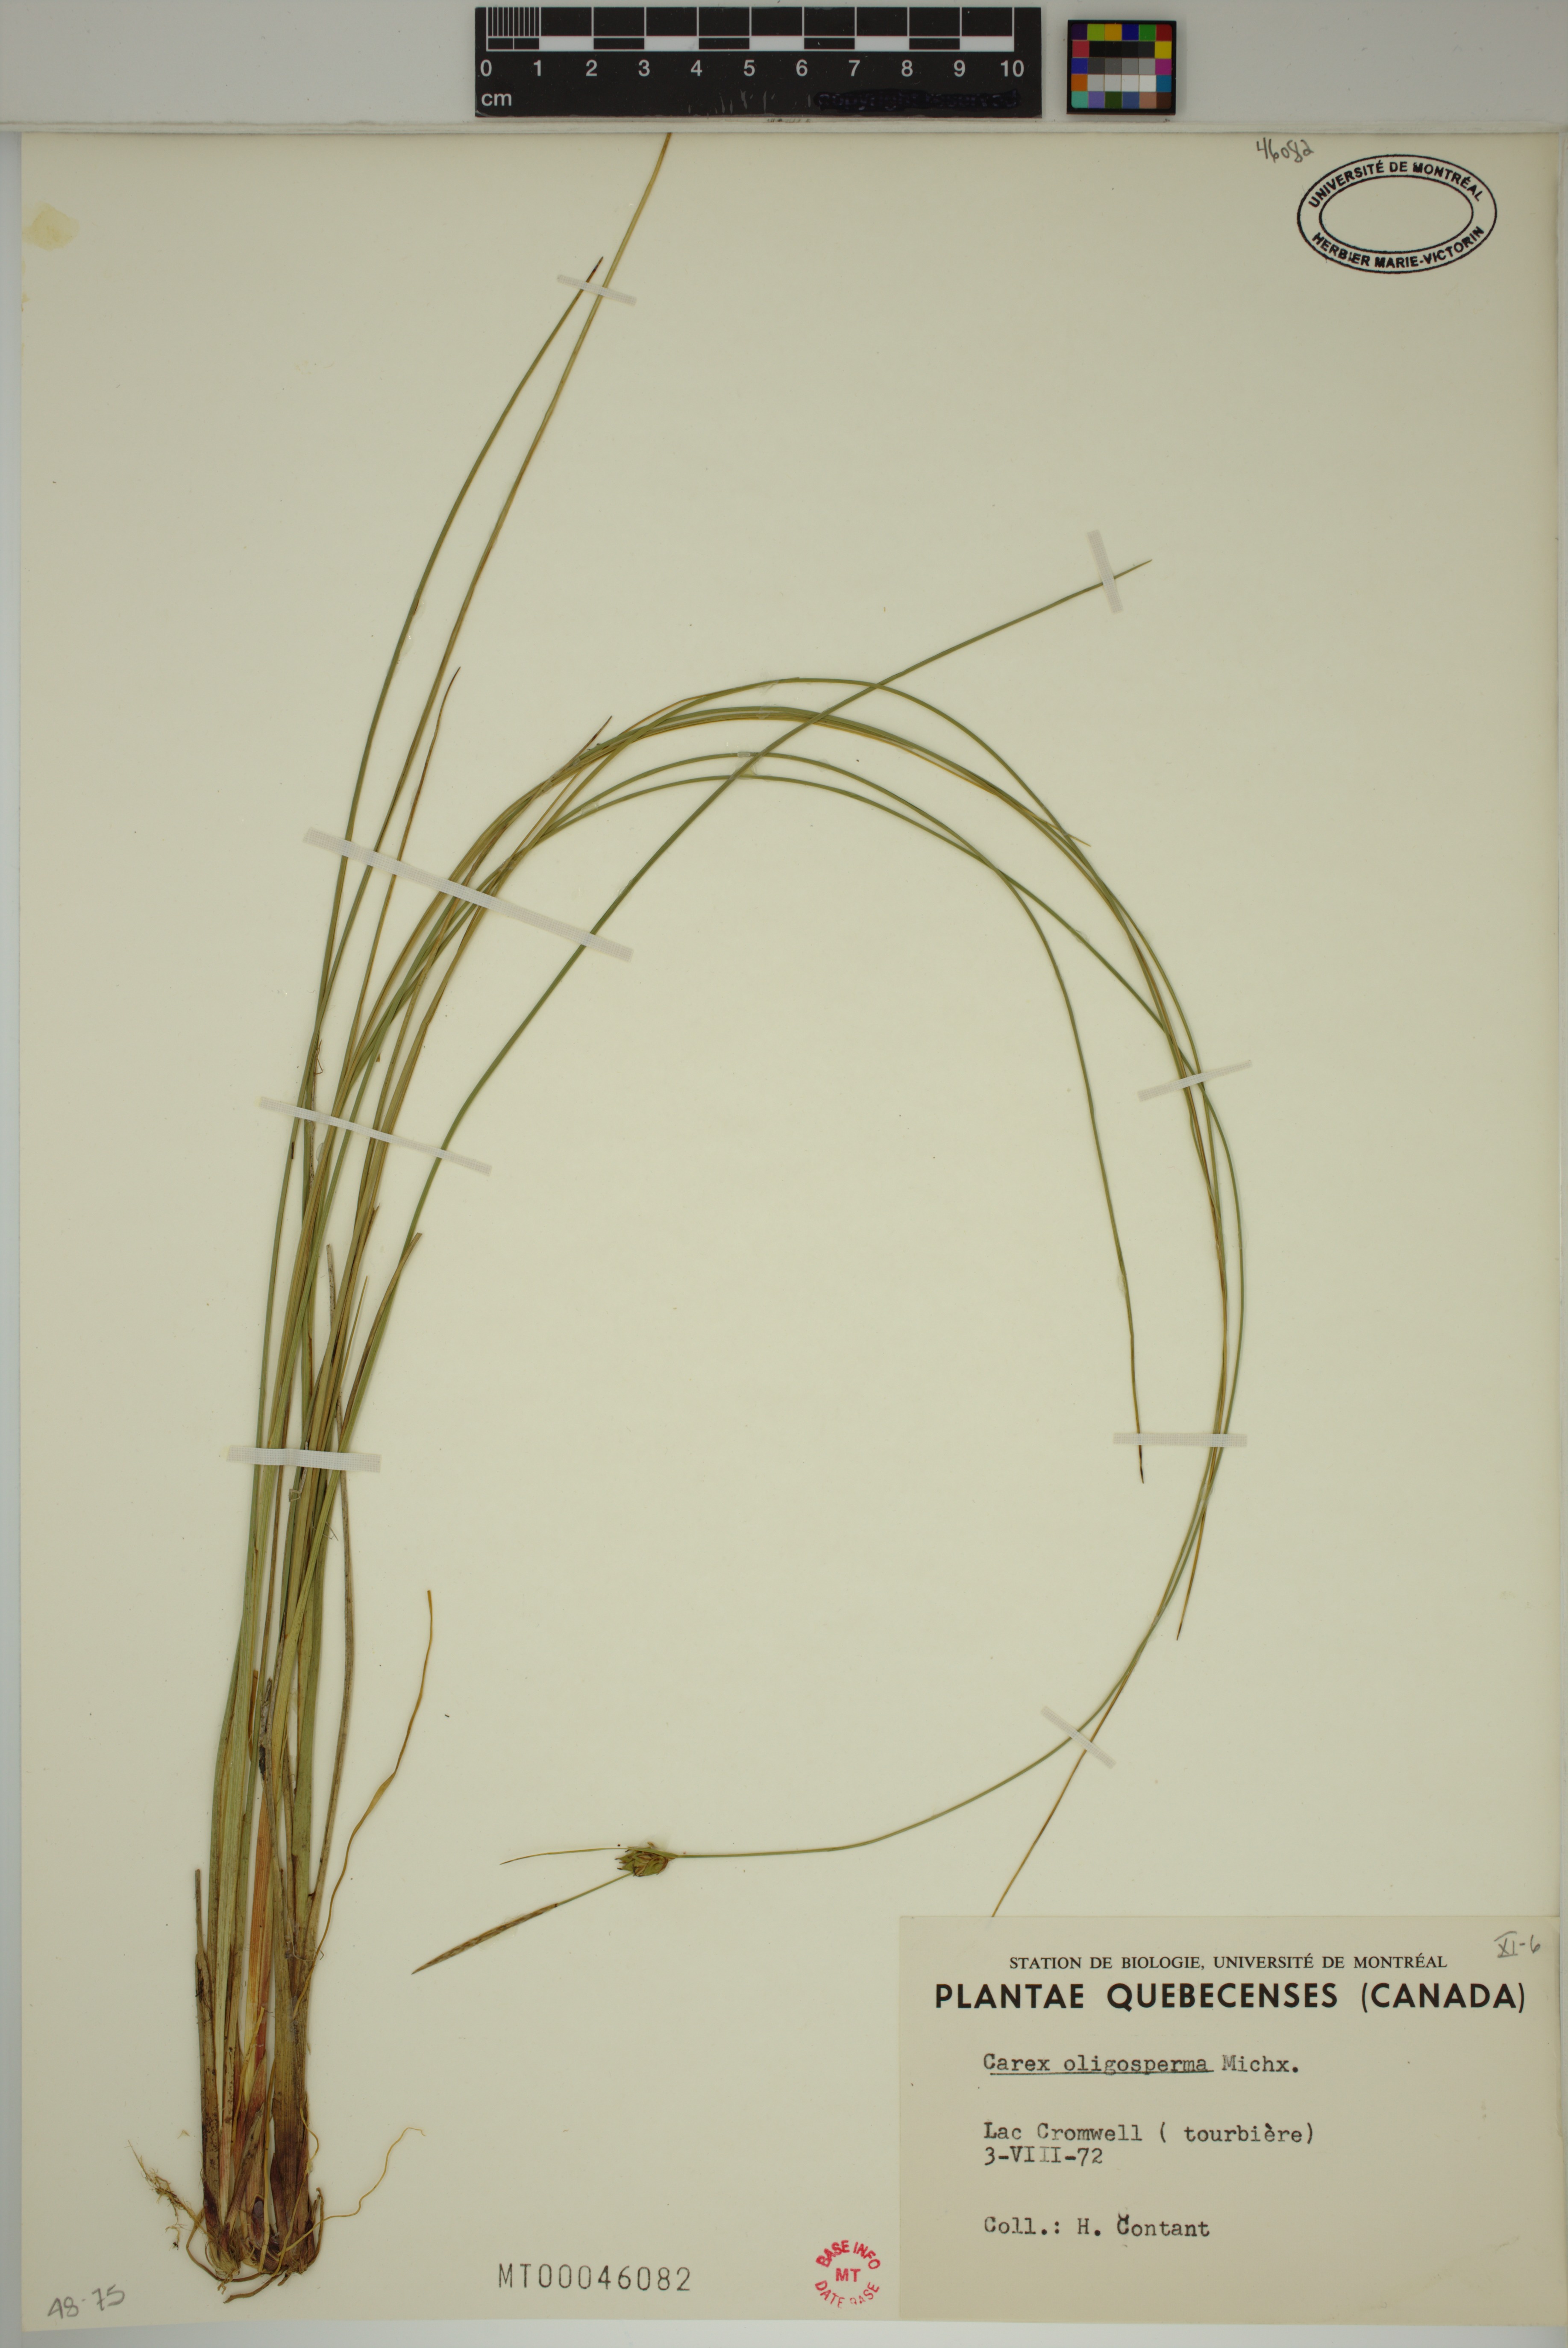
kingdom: Plantae
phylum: Tracheophyta
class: Liliopsida
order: Poales
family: Cyperaceae
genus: Carex
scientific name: Carex oligosperma
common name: Few-seed sedge
